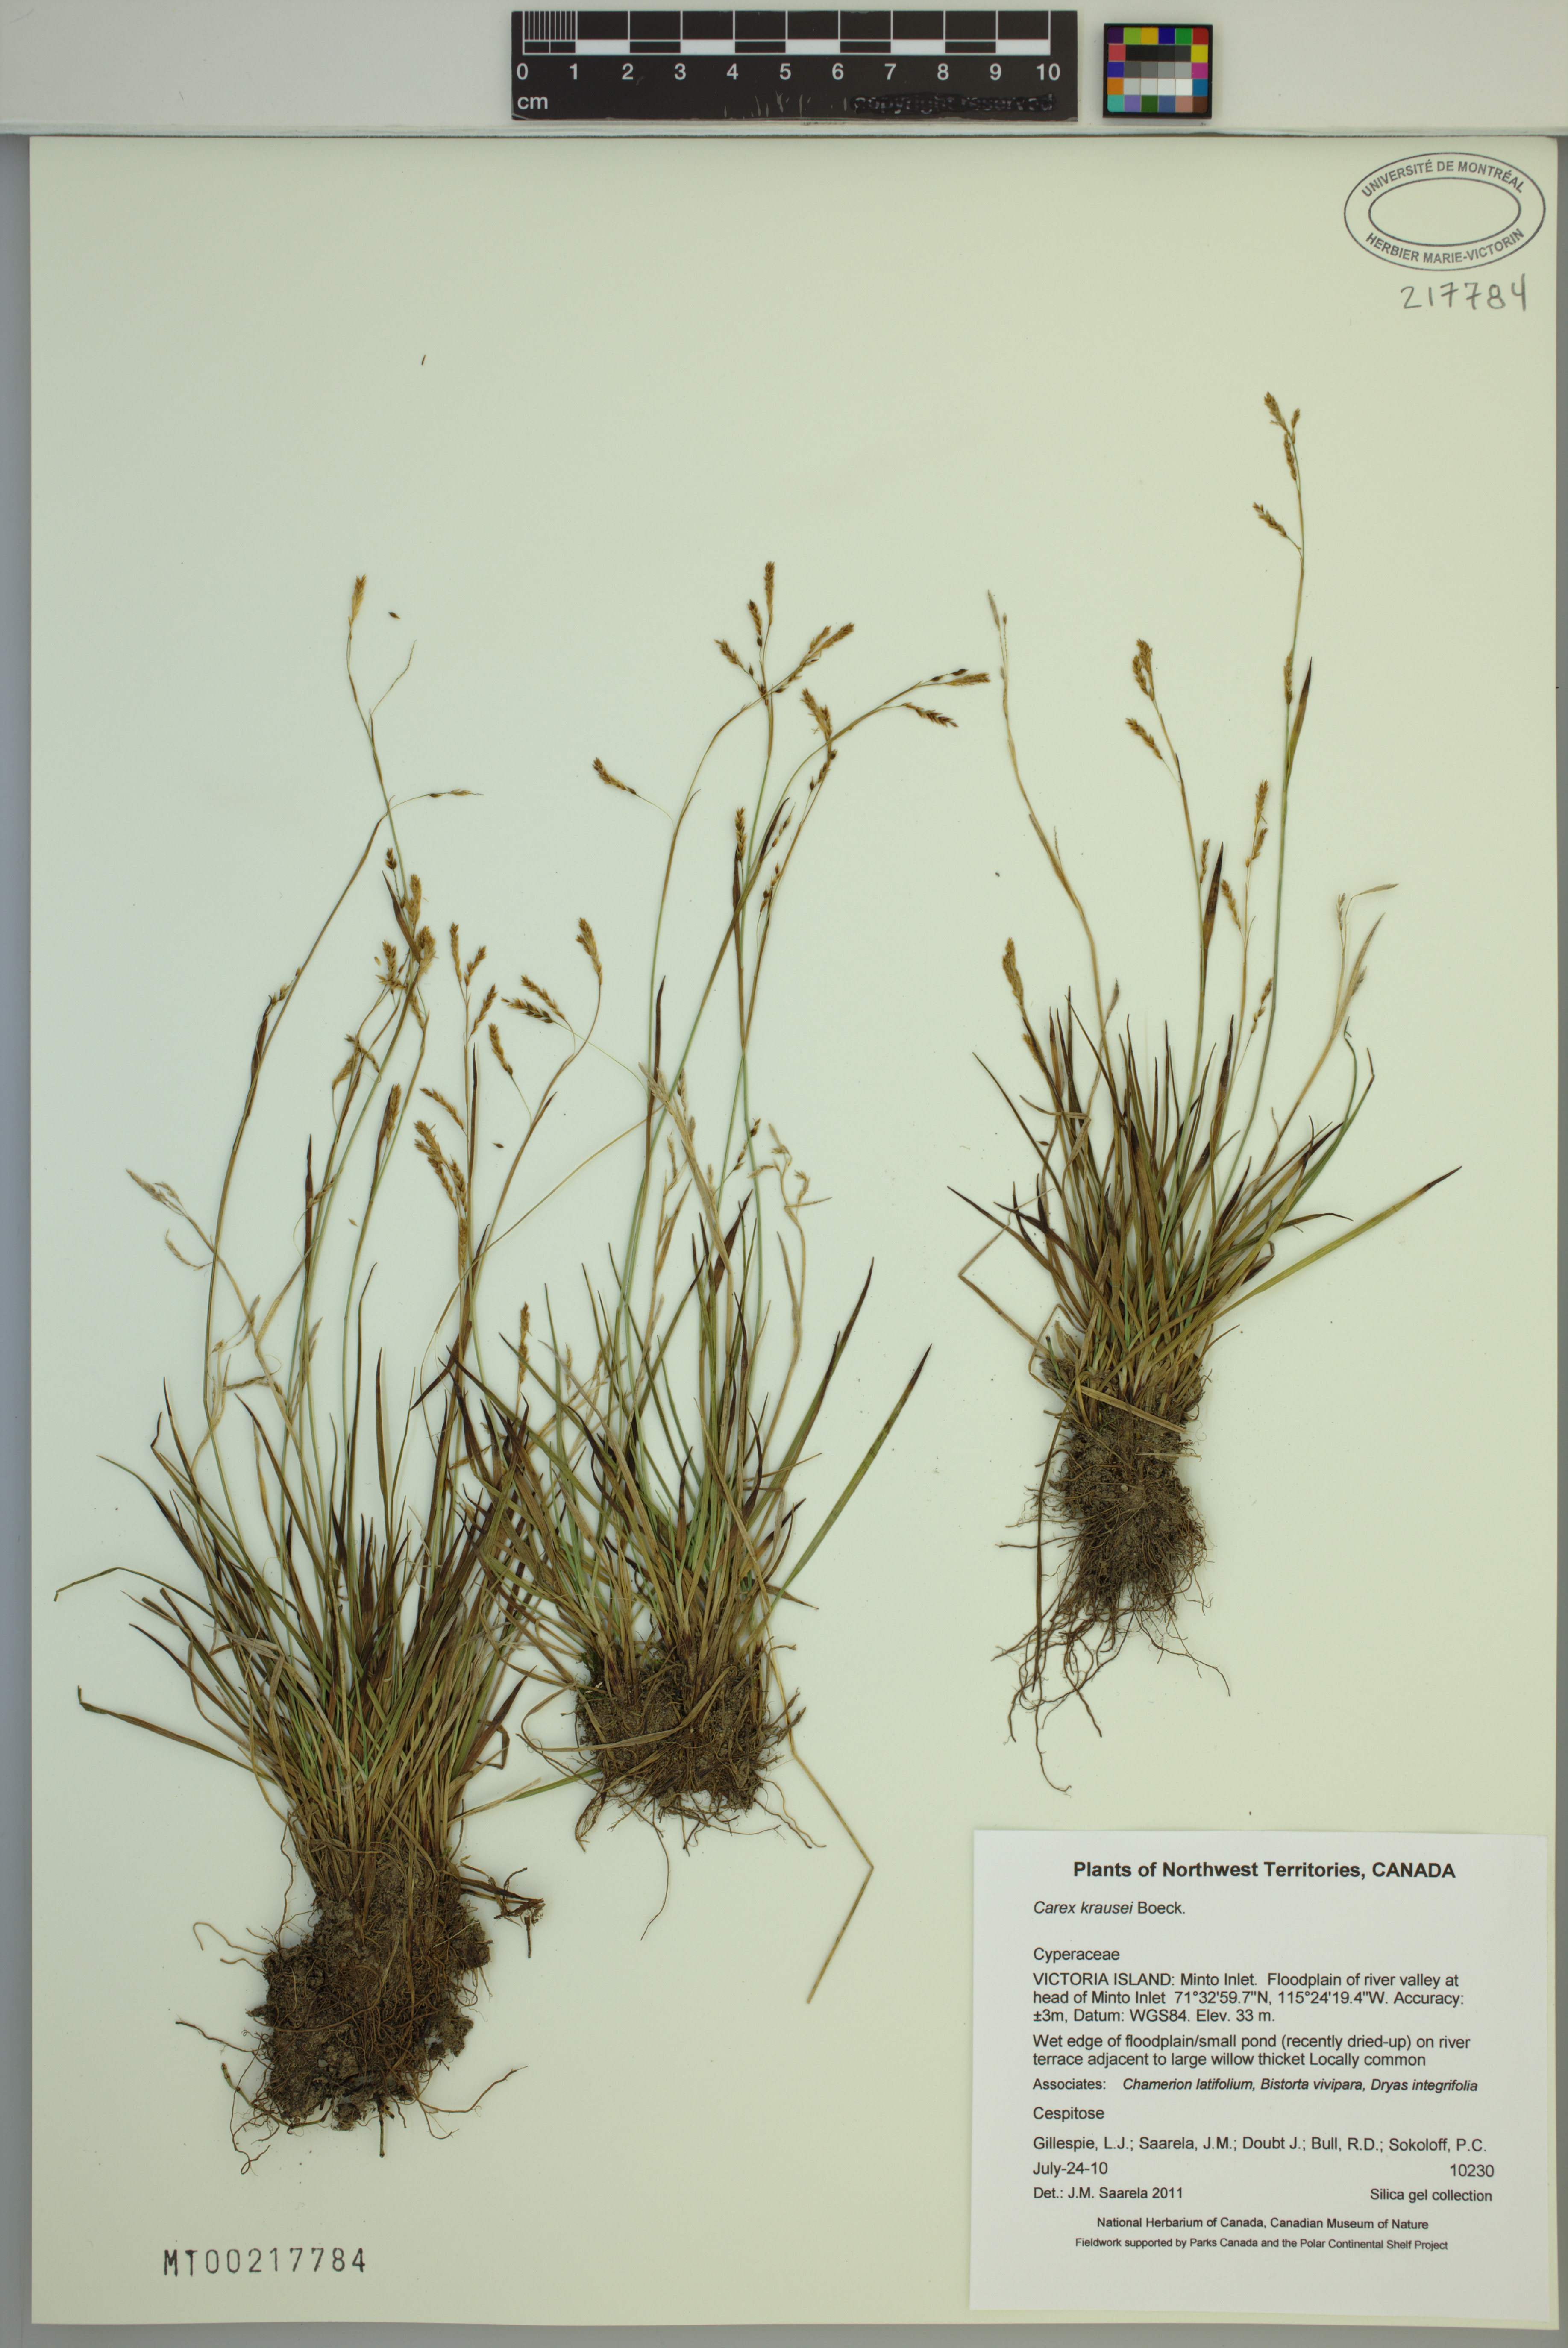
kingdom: Plantae
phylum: Tracheophyta
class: Liliopsida
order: Poales
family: Cyperaceae
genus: Carex
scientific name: Carex krausei
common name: Krause's sedge
